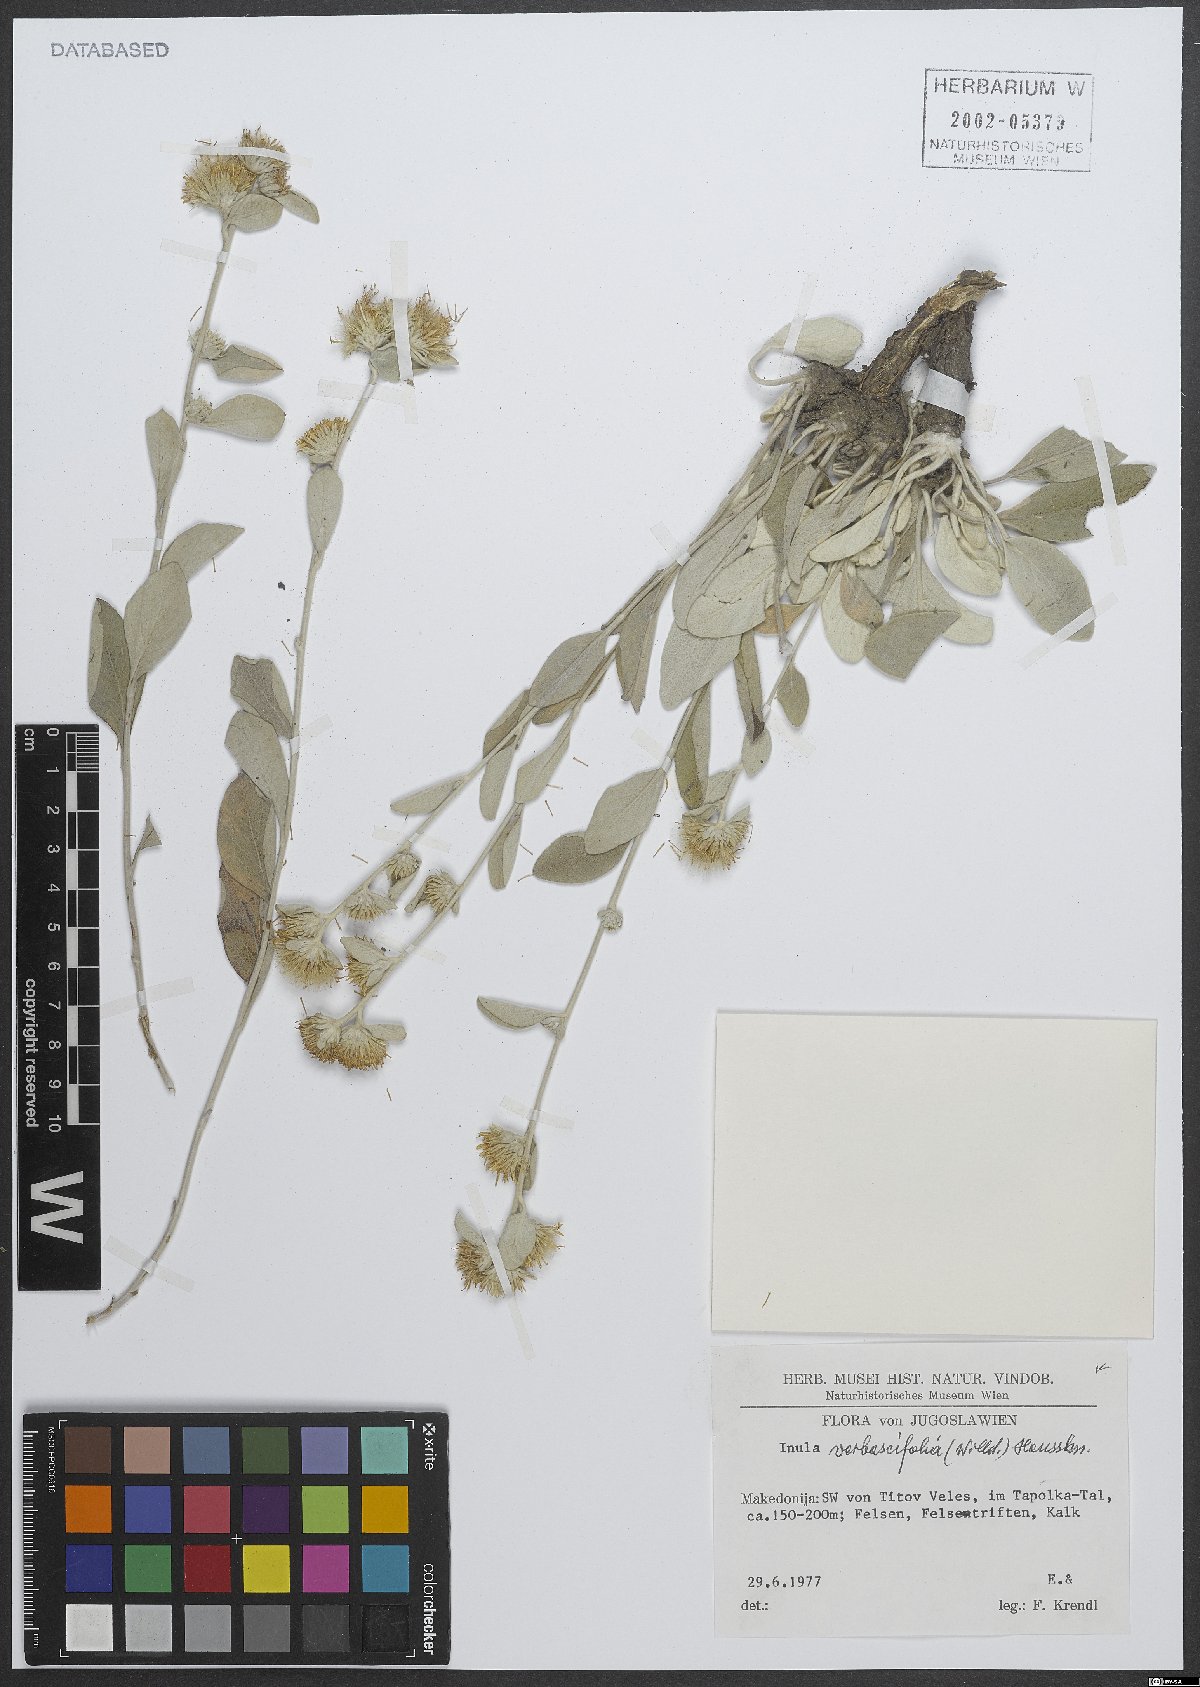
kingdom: Plantae
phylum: Tracheophyta
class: Magnoliopsida
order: Asterales
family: Asteraceae
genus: Pentanema
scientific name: Pentanema verbascifolium
